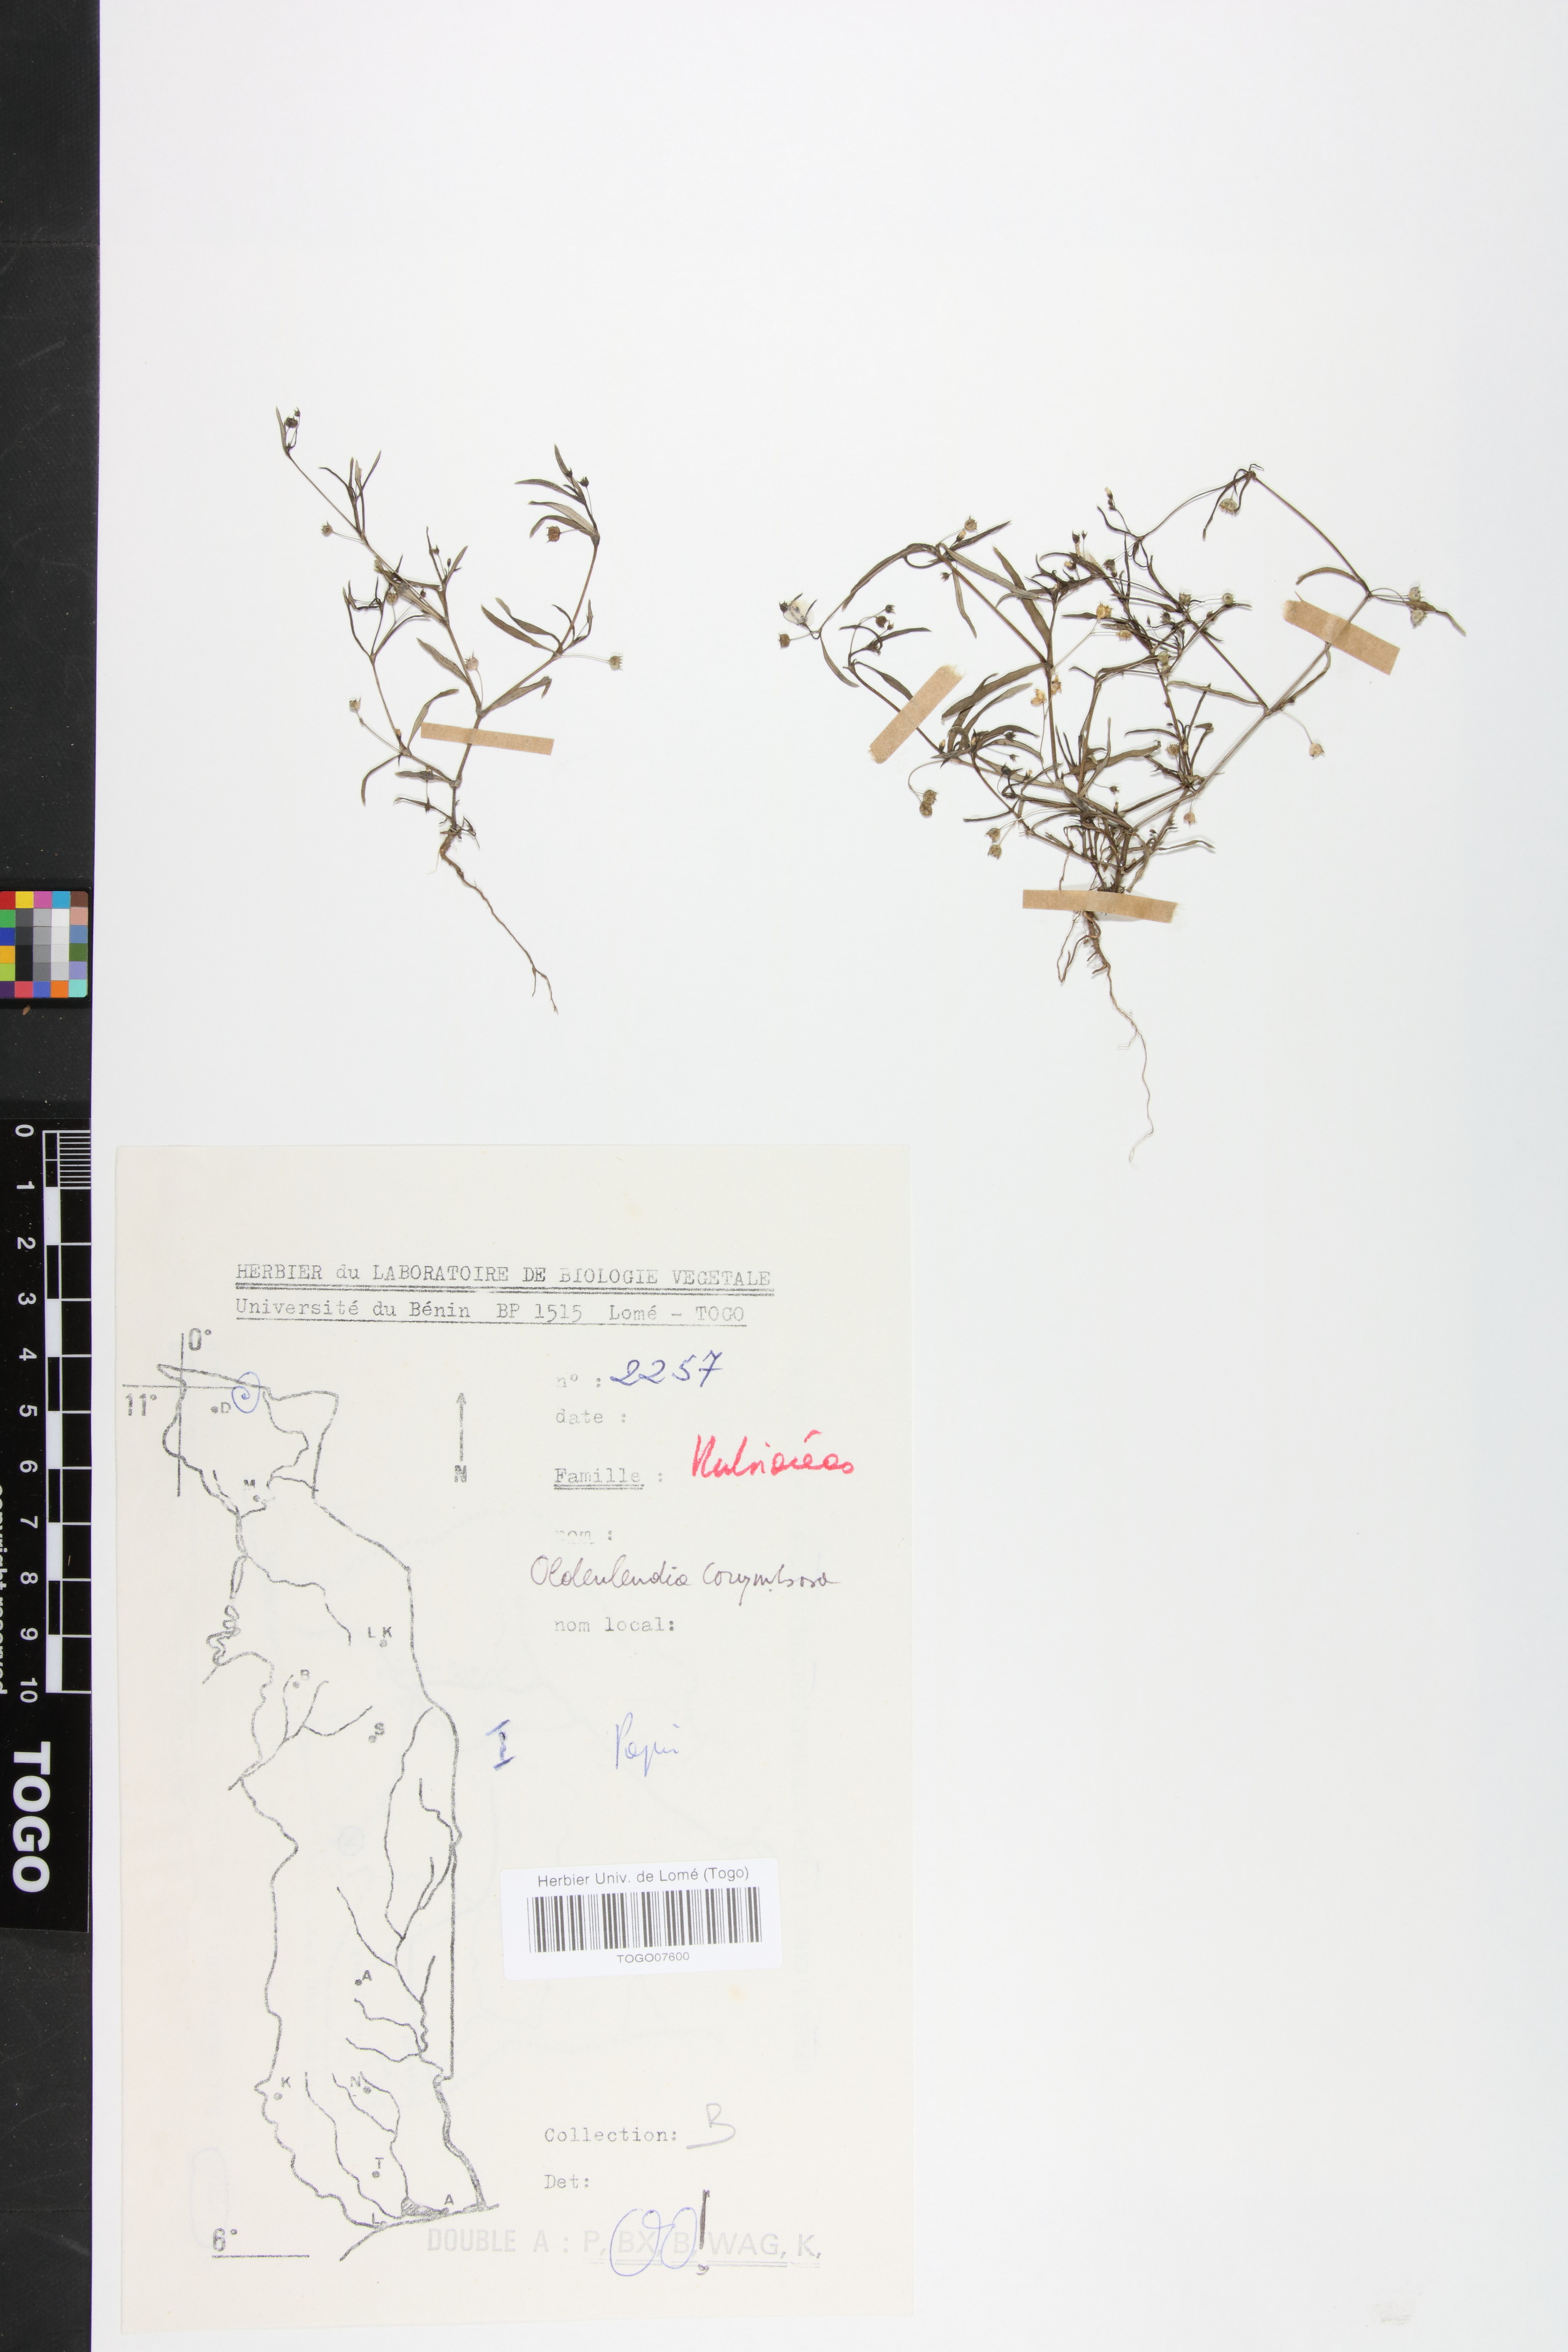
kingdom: Plantae
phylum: Tracheophyta
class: Magnoliopsida
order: Gentianales
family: Rubiaceae
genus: Oldenlandia
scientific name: Oldenlandia corymbosa
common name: Flat-top mille graines
